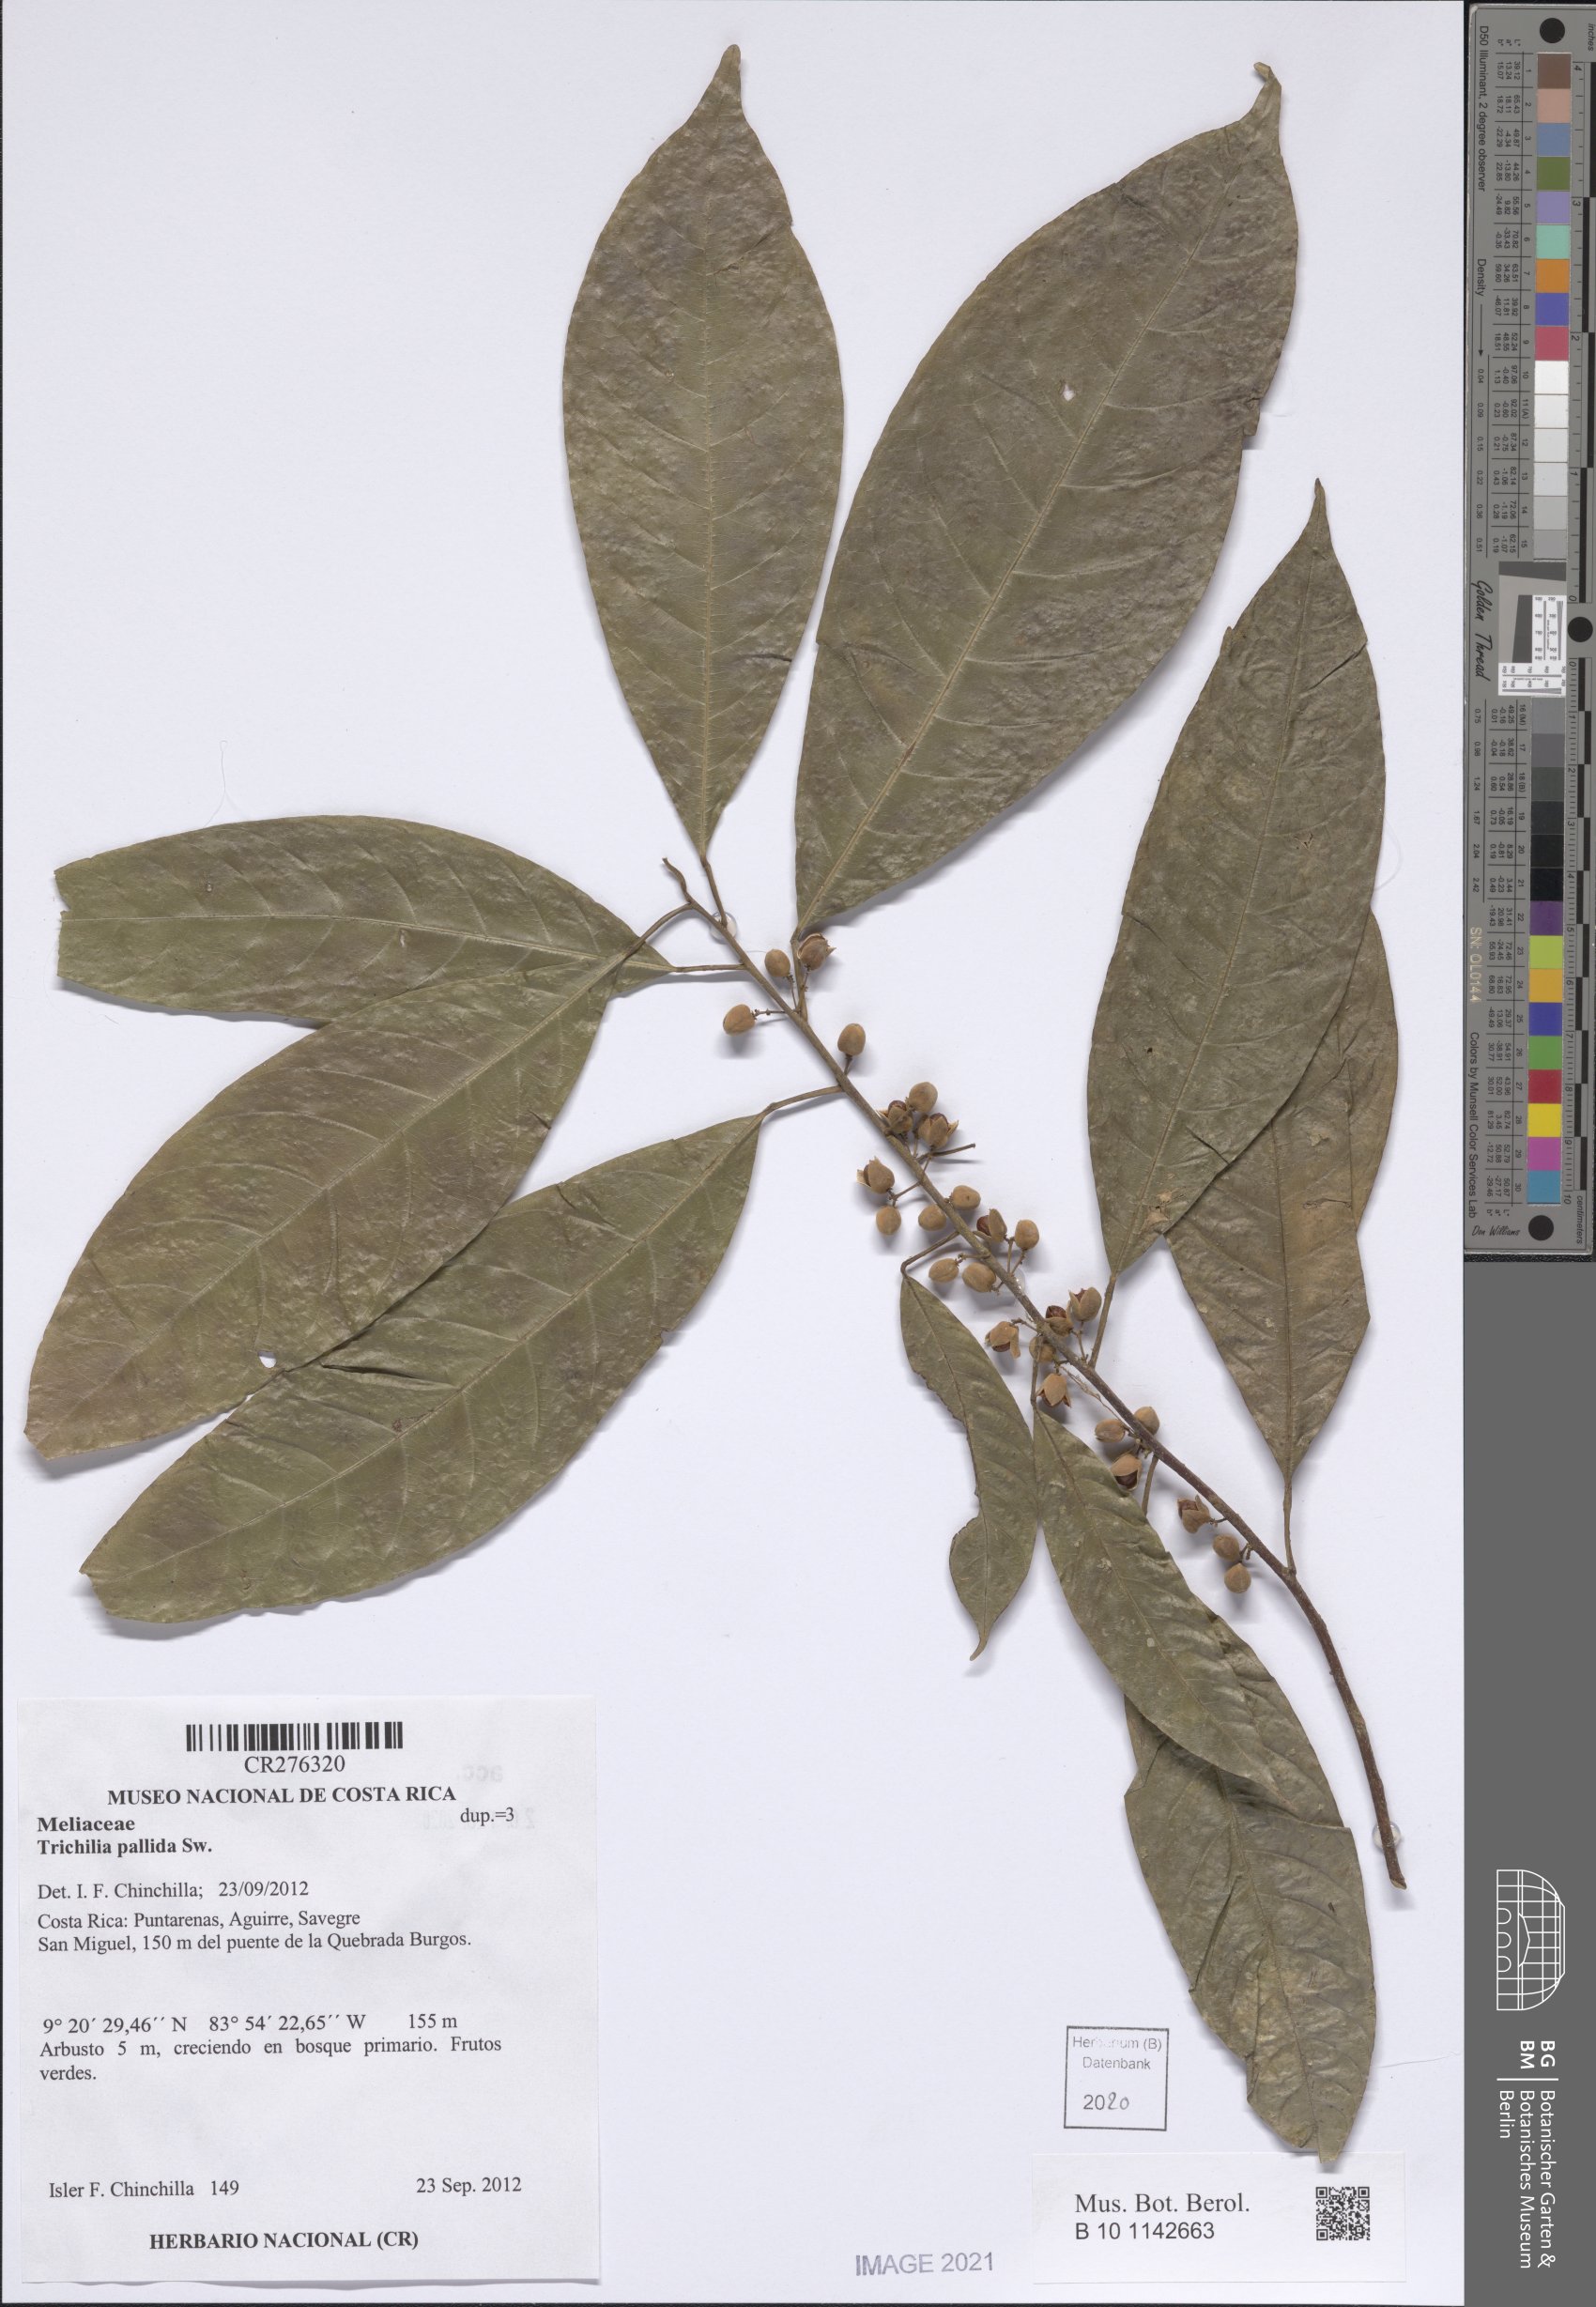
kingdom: Plantae
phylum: Tracheophyta
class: Magnoliopsida
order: Sapindales
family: Meliaceae
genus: Trichilia
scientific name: Trichilia pallida
